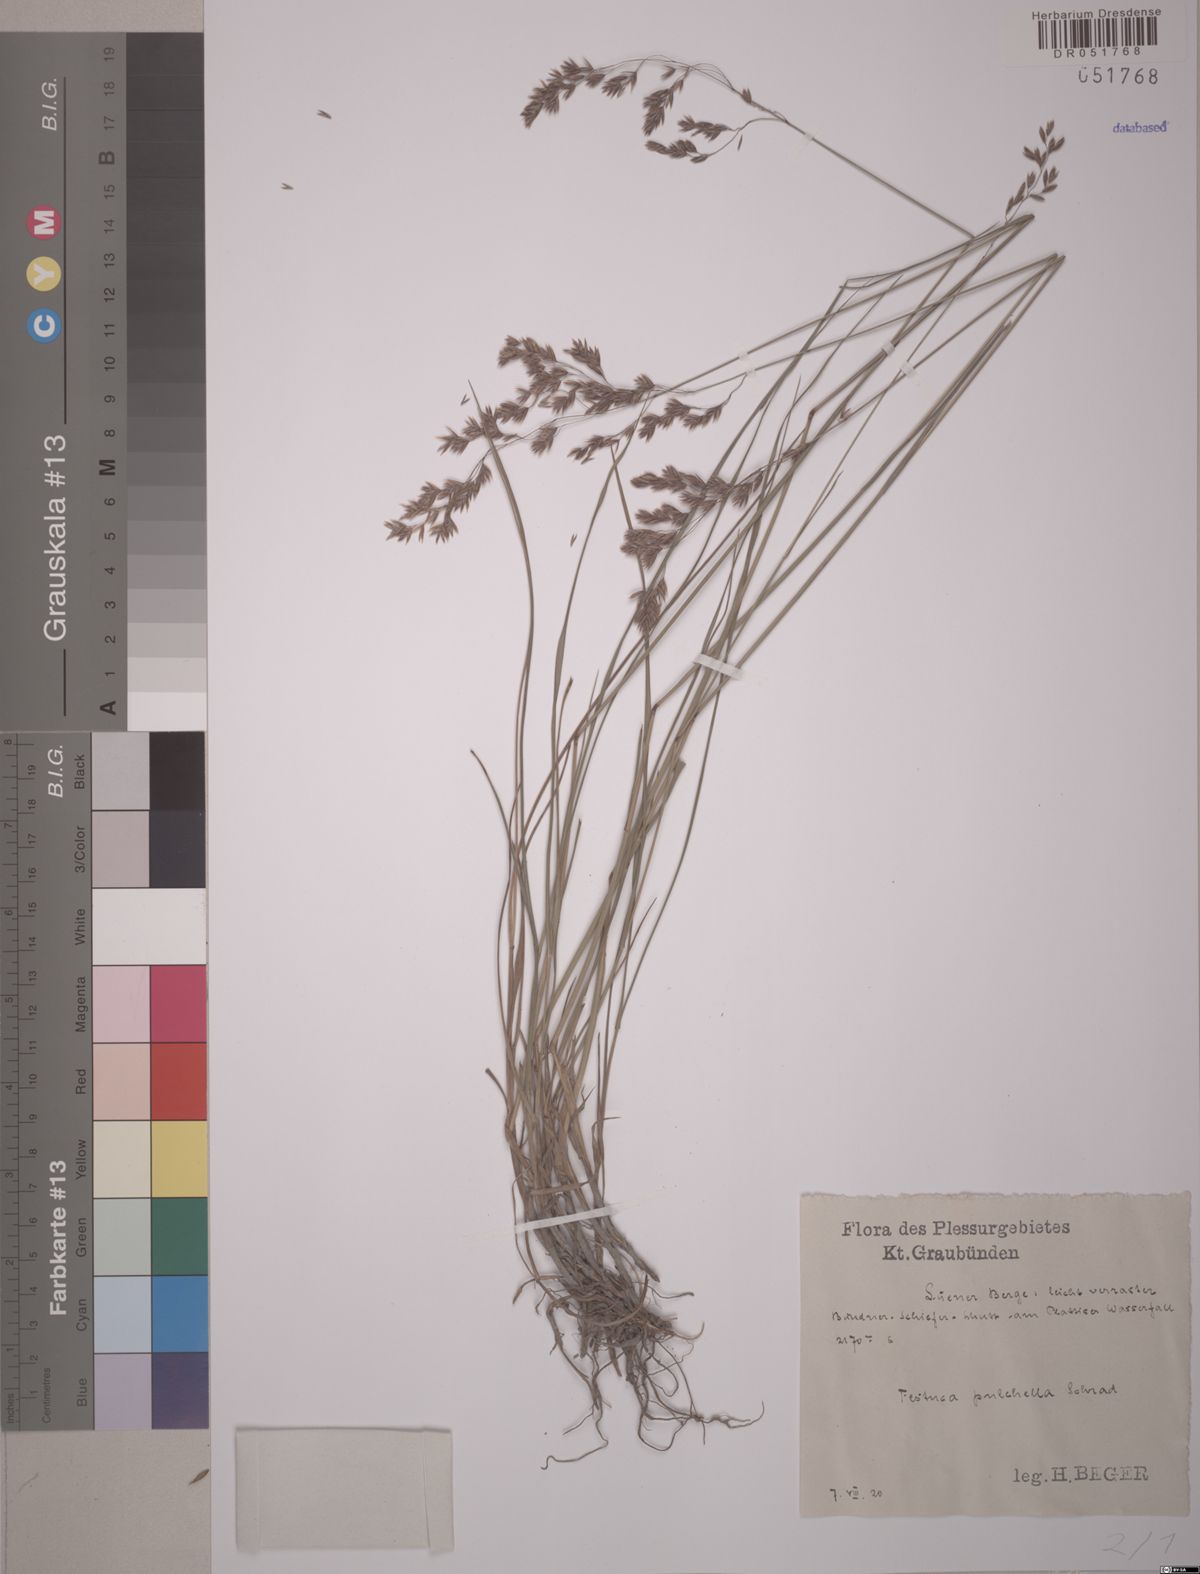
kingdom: Plantae
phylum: Tracheophyta
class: Liliopsida
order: Poales
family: Poaceae
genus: Festuca
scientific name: Festuca pulchella
